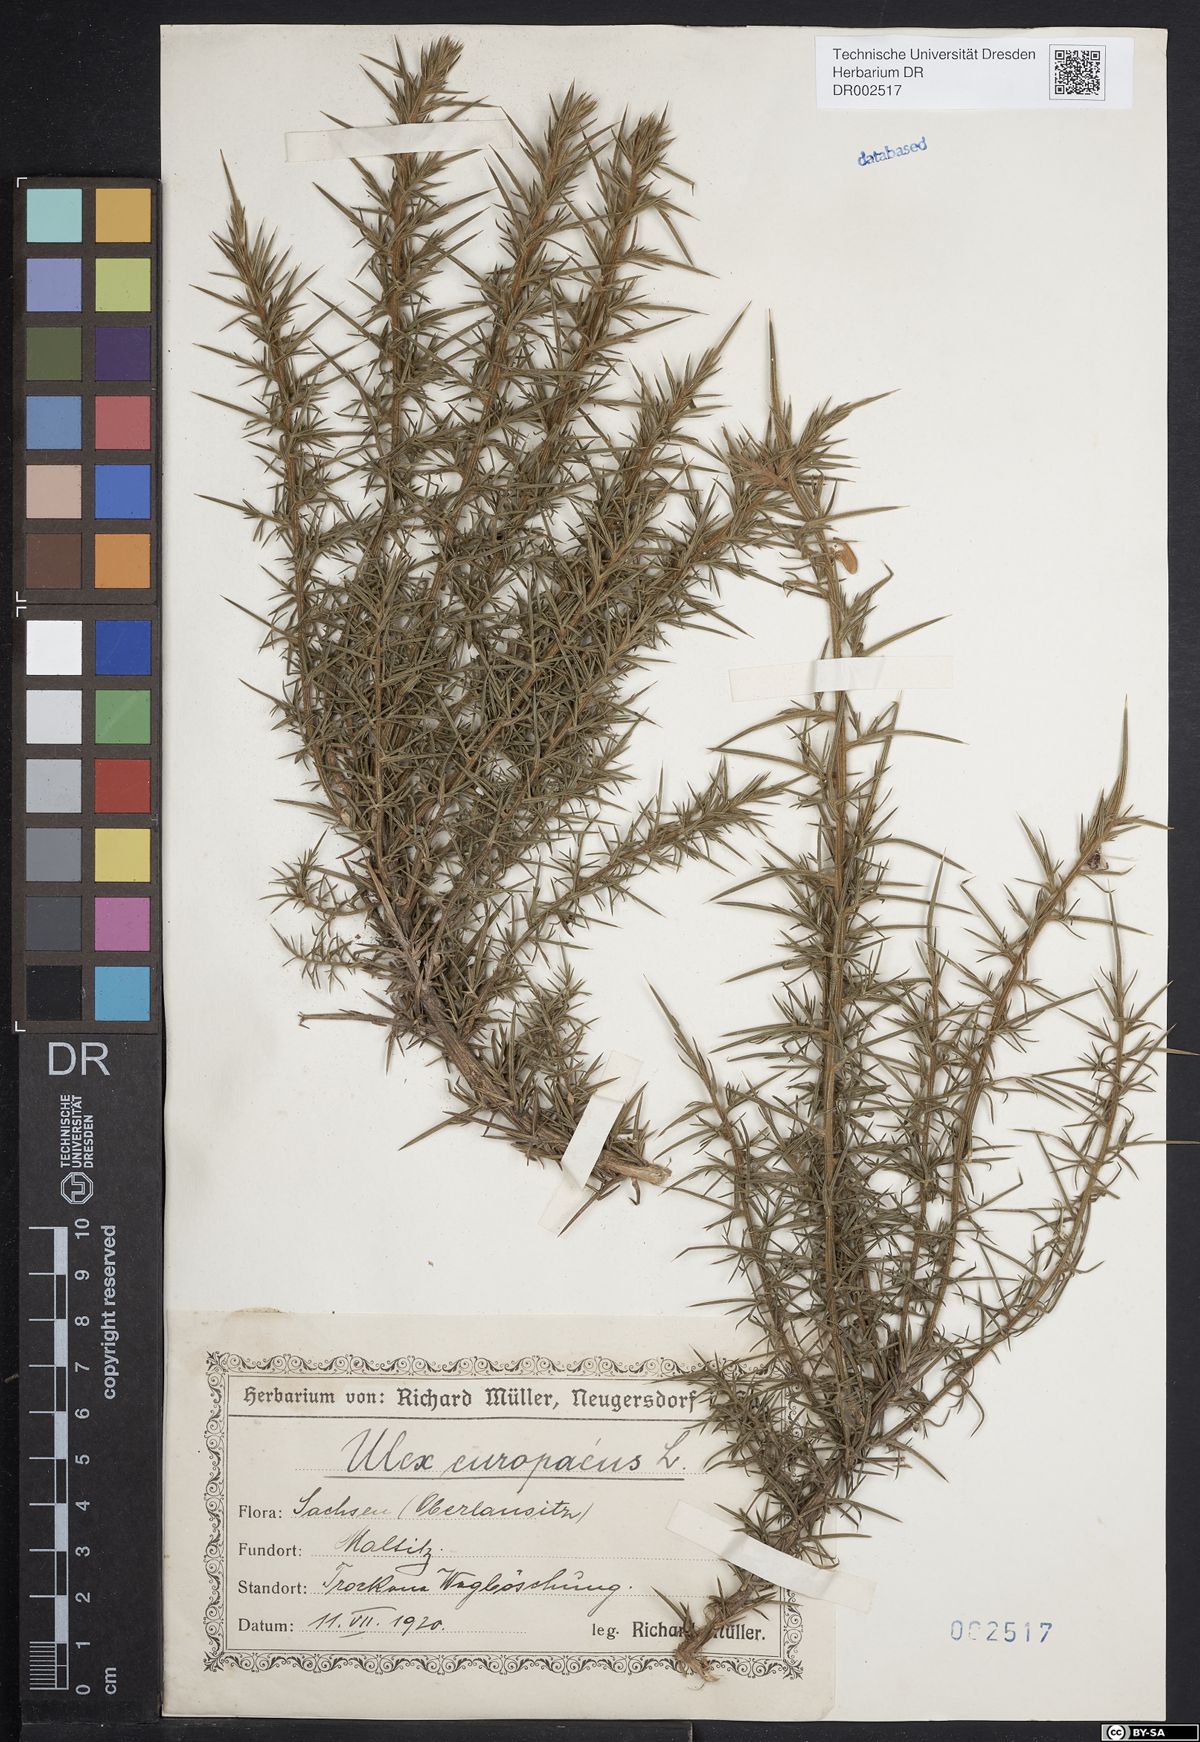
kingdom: Plantae
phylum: Tracheophyta
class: Magnoliopsida
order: Fabales
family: Fabaceae
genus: Ulex
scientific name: Ulex europaeus
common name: Common gorse
